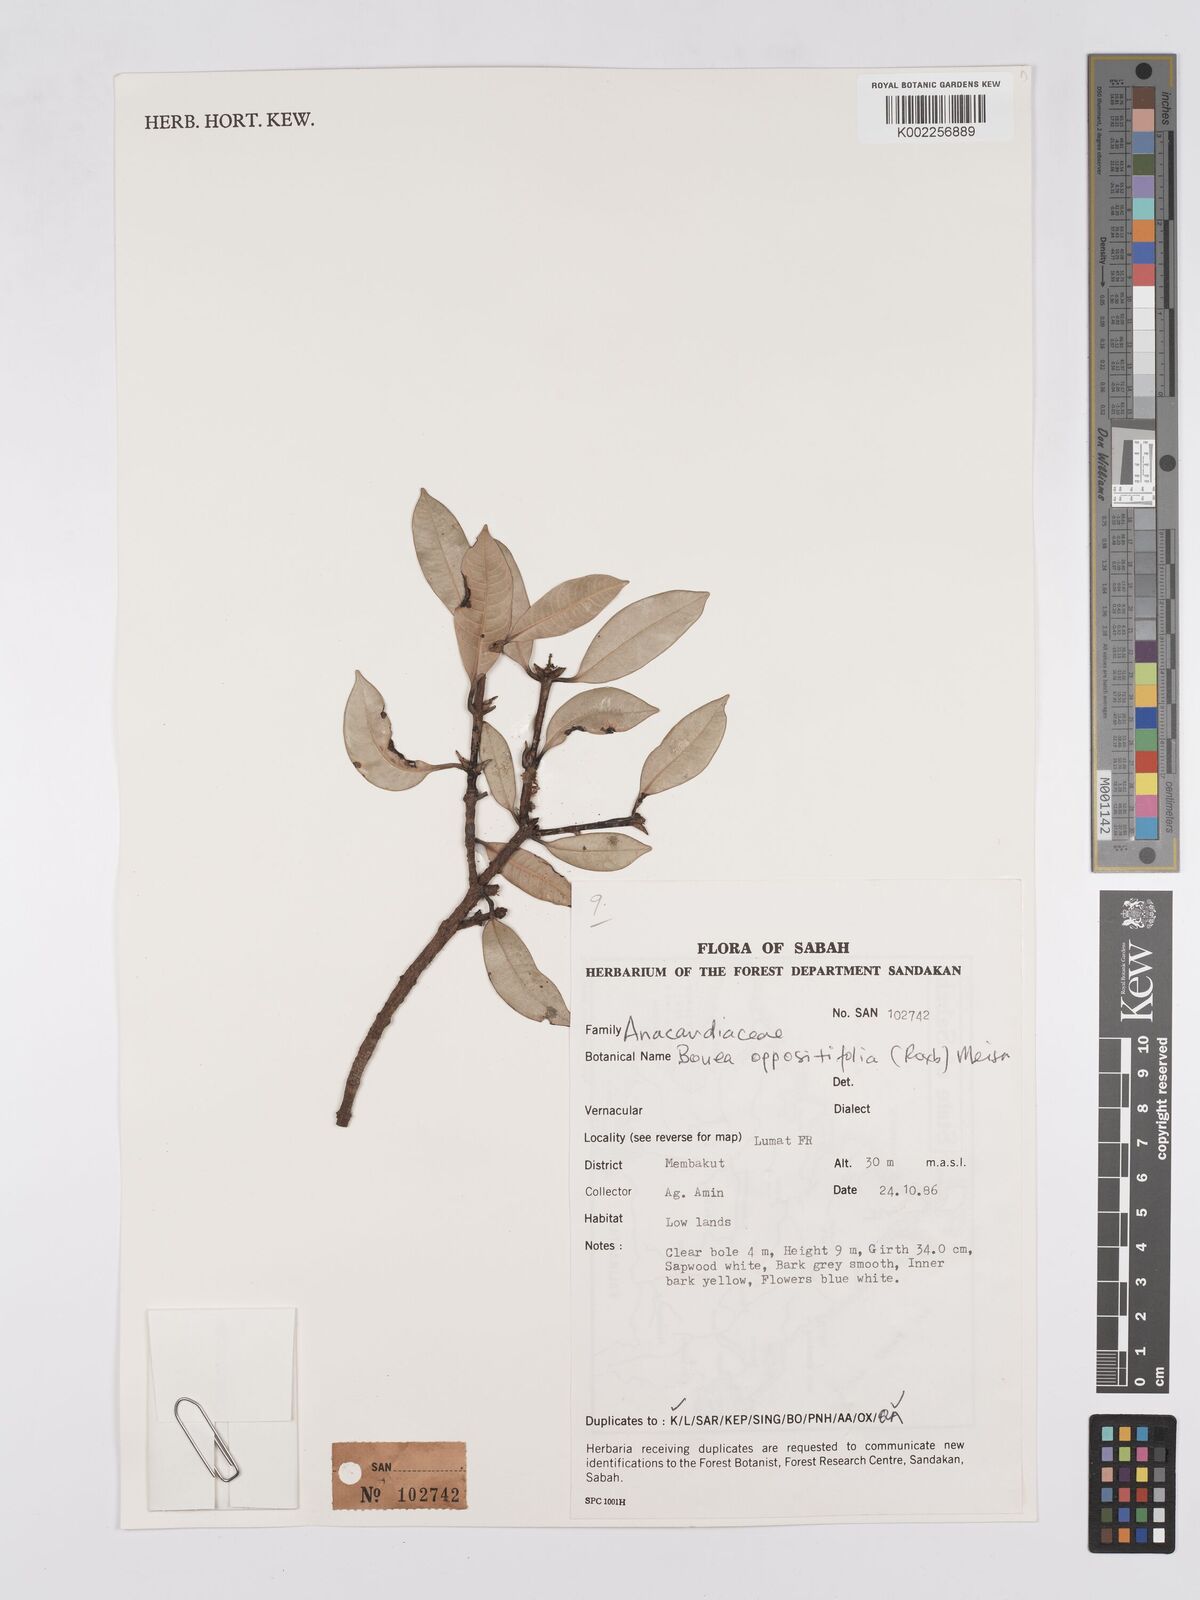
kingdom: Plantae
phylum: Tracheophyta
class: Magnoliopsida
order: Sapindales
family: Anacardiaceae
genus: Bouea
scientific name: Bouea oppositifolia
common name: Narrow-leaved kundang
